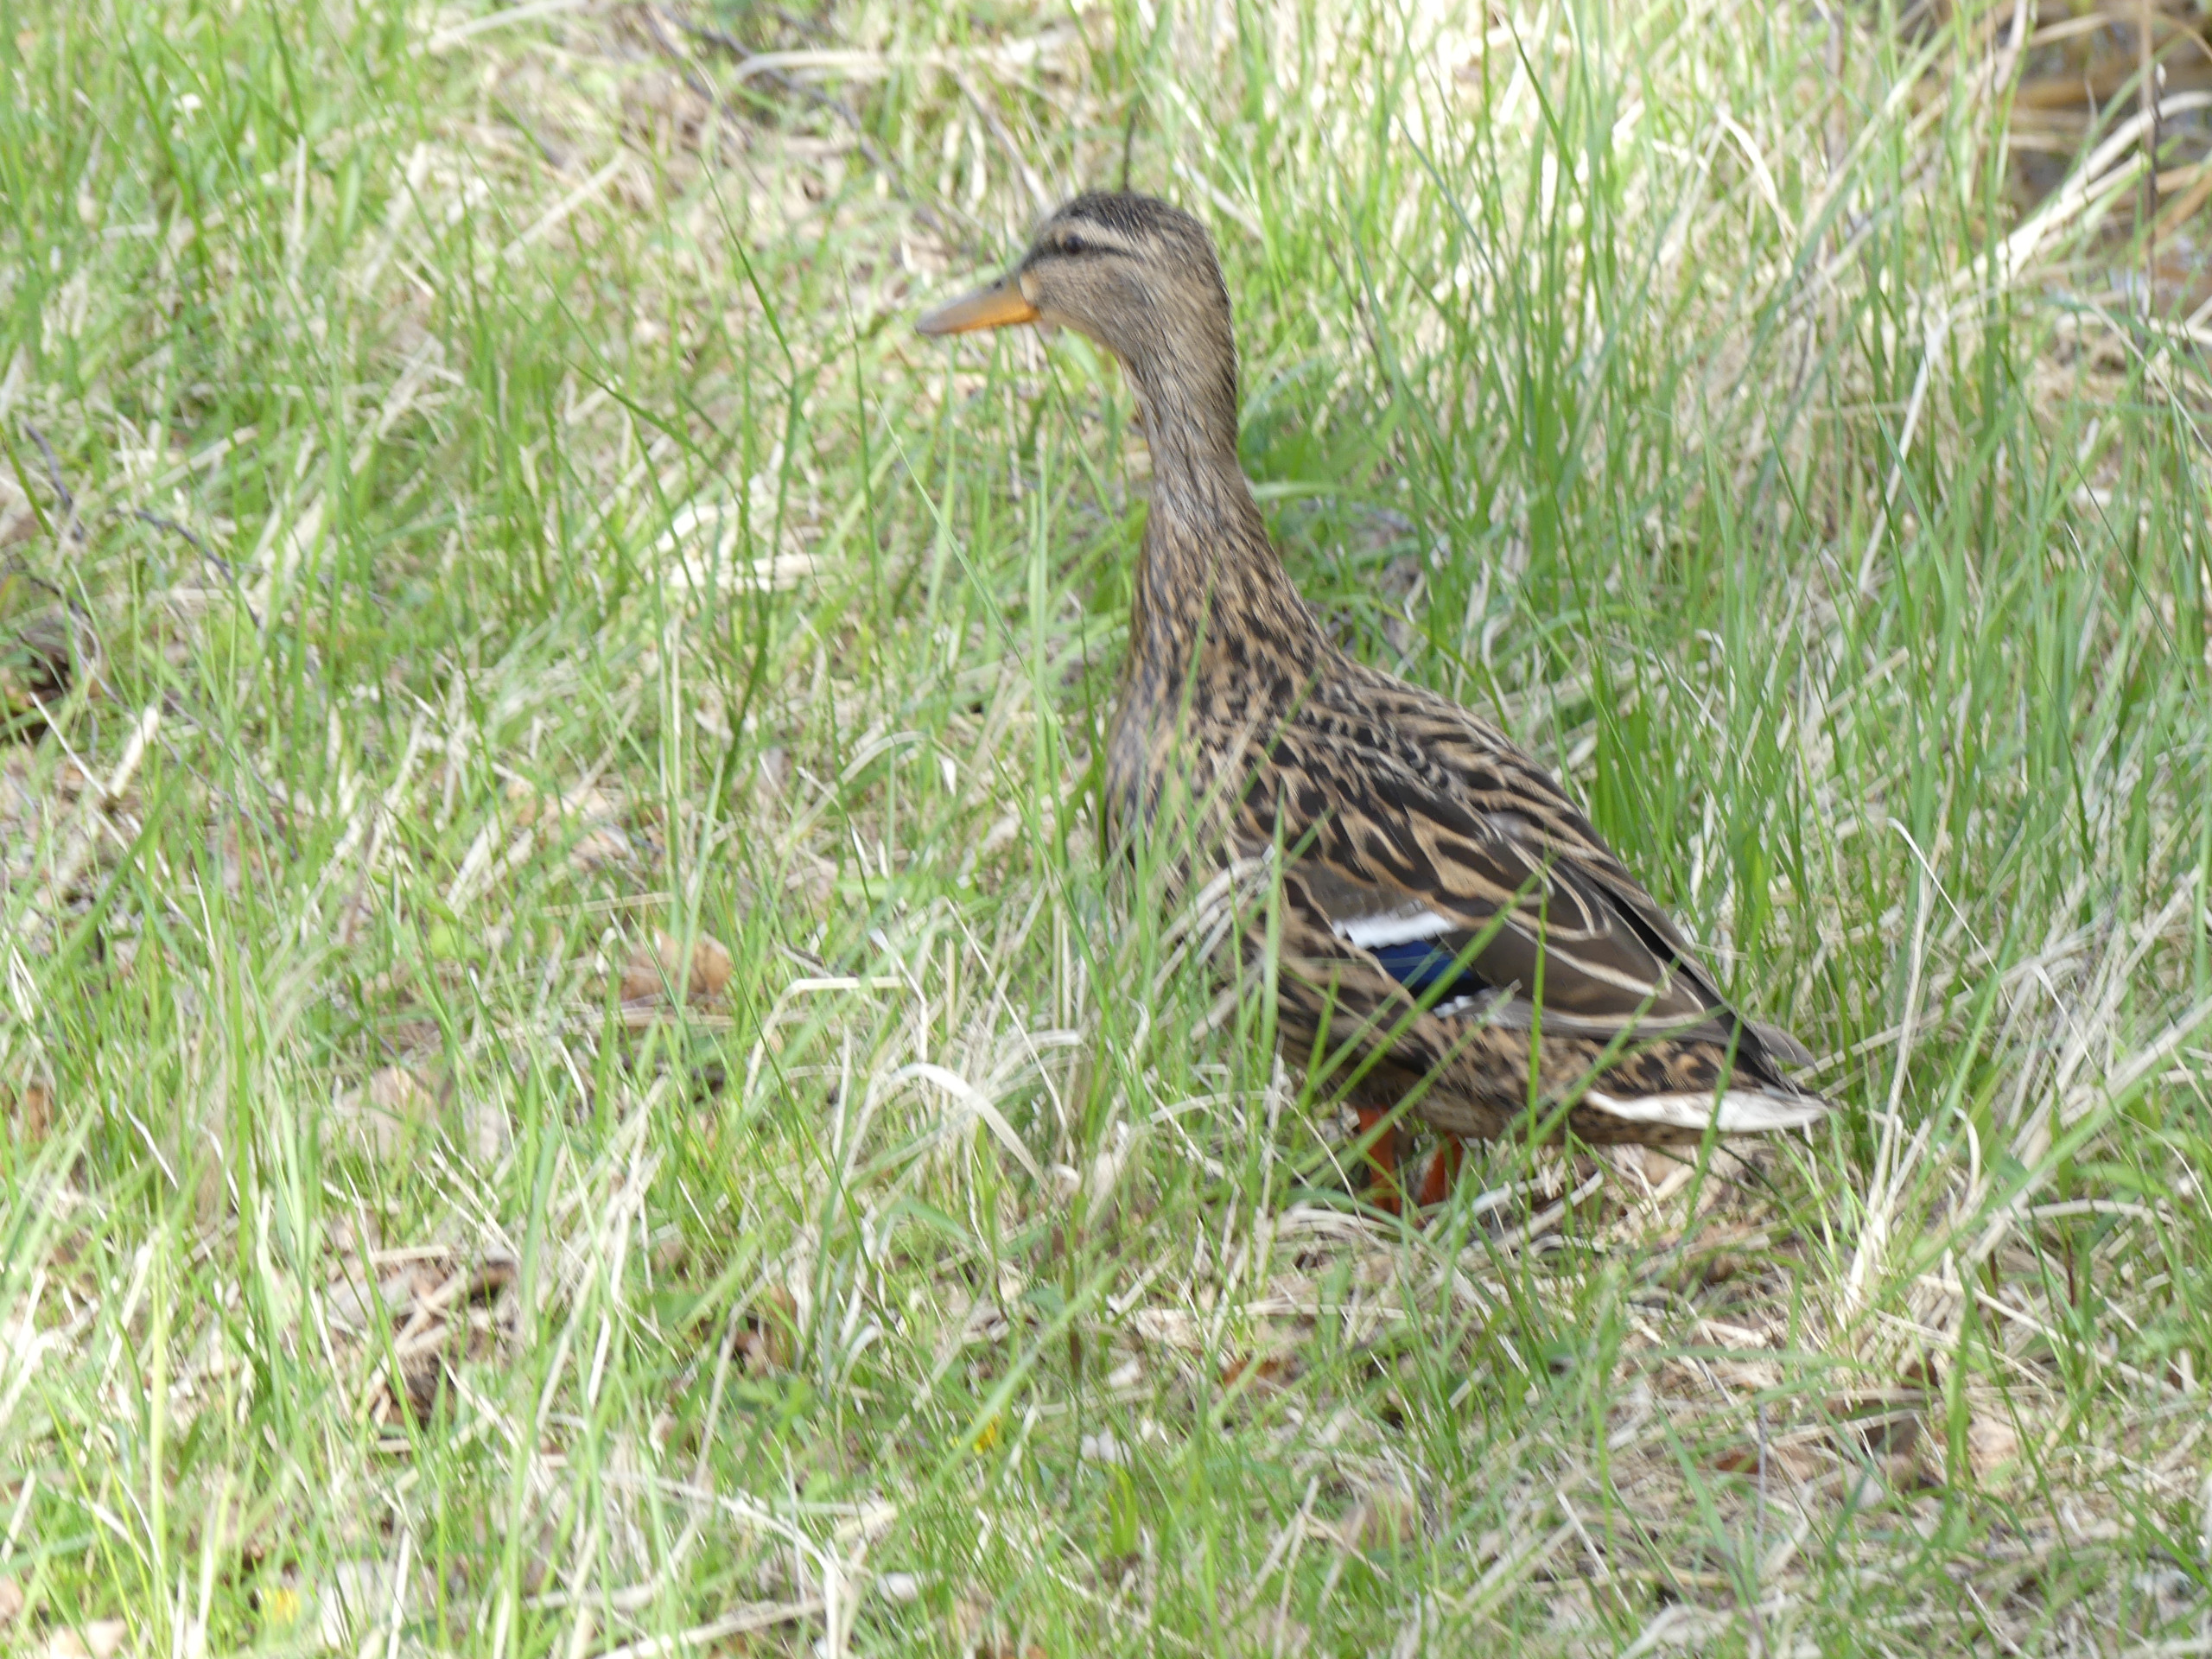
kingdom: Animalia
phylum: Chordata
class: Aves
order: Anseriformes
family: Anatidae
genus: Anas
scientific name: Anas platyrhynchos
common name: Gråand
